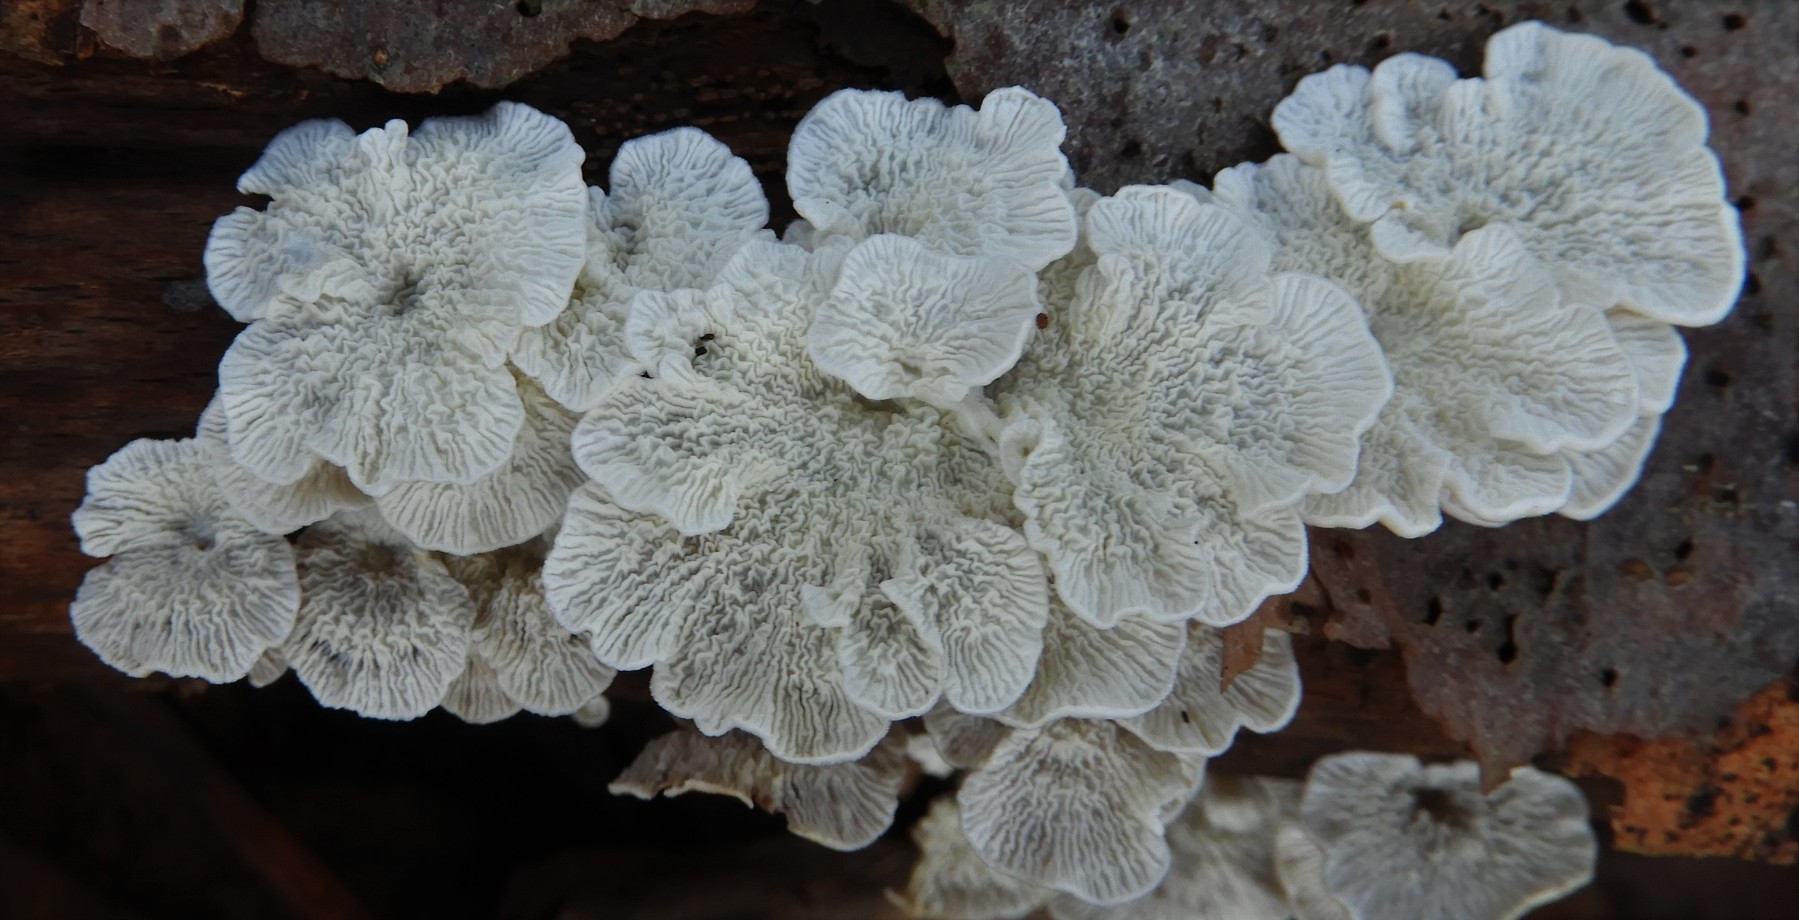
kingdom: Fungi
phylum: Basidiomycota
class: Agaricomycetes
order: Amylocorticiales
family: Amylocorticiaceae
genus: Plicaturopsis
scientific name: Plicaturopsis crispa
